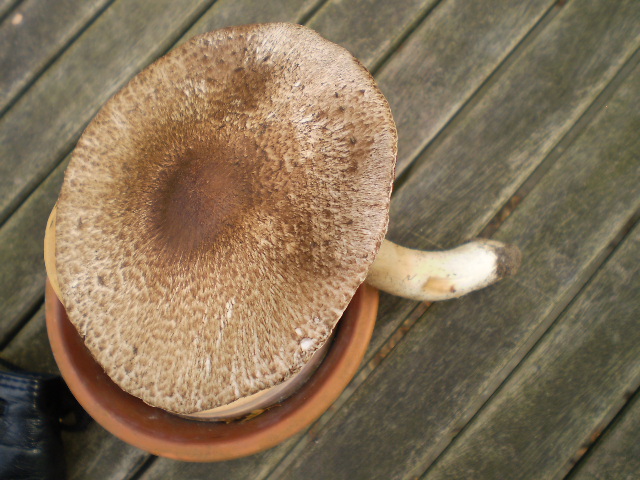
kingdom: Fungi
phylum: Basidiomycota
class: Agaricomycetes
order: Agaricales
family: Agaricaceae
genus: Agaricus
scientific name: Agaricus langei
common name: stor blod-champignon
